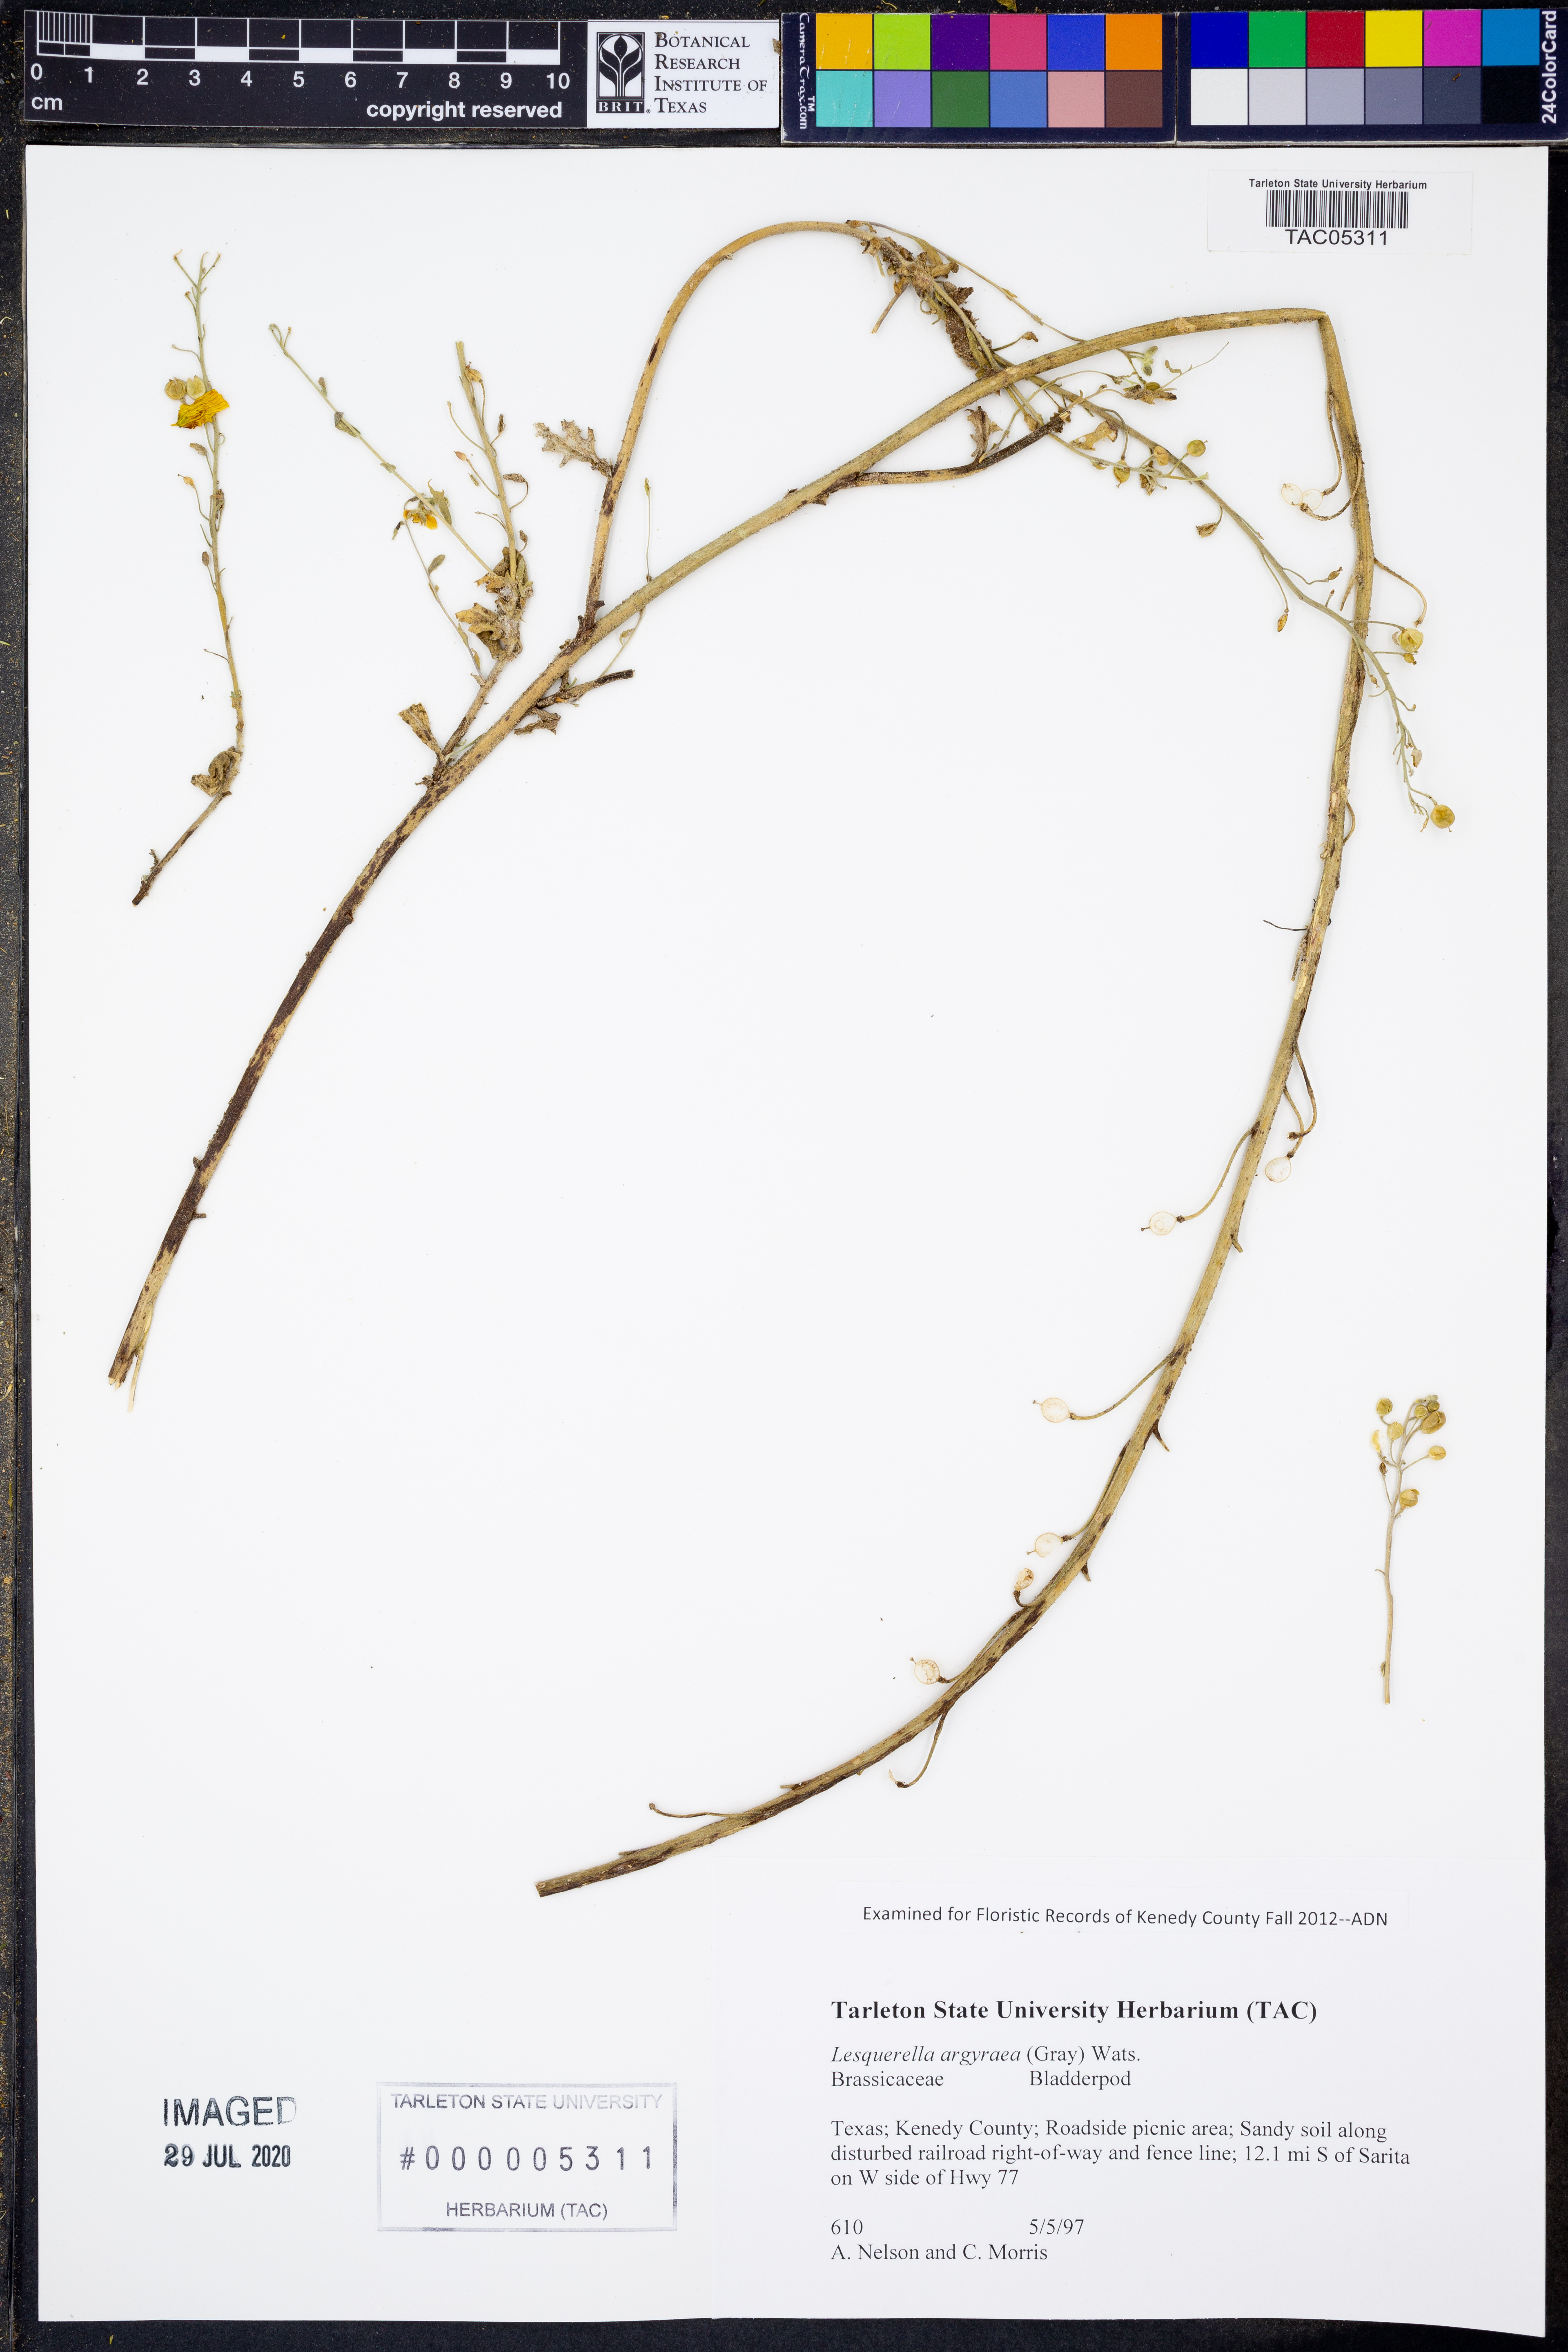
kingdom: Plantae
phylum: Tracheophyta
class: Magnoliopsida
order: Brassicales
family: Brassicaceae
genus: Physaria
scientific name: Physaria argyraea
